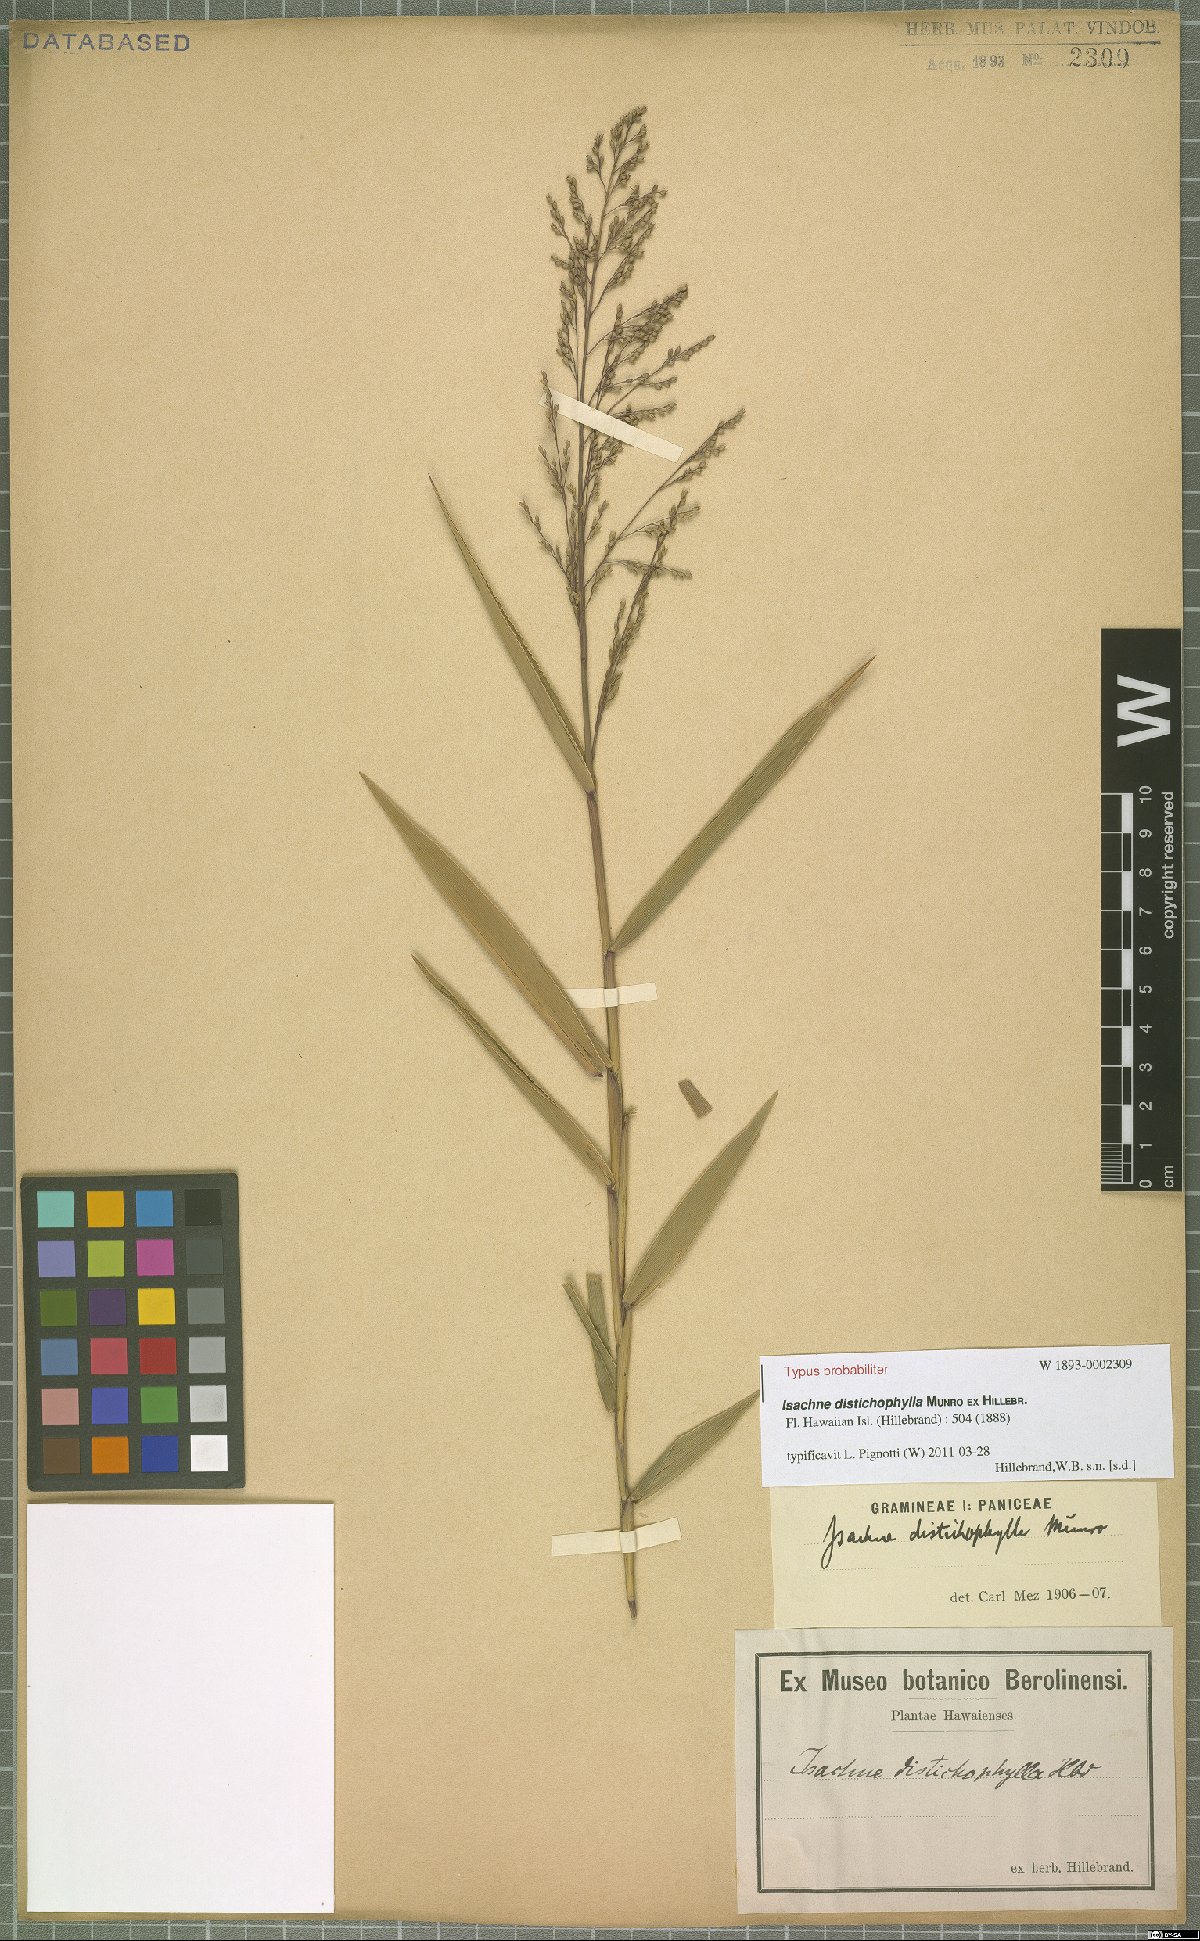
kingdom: Plantae
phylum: Tracheophyta
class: Liliopsida
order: Poales
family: Poaceae
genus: Isachne
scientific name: Isachne distichophylla
